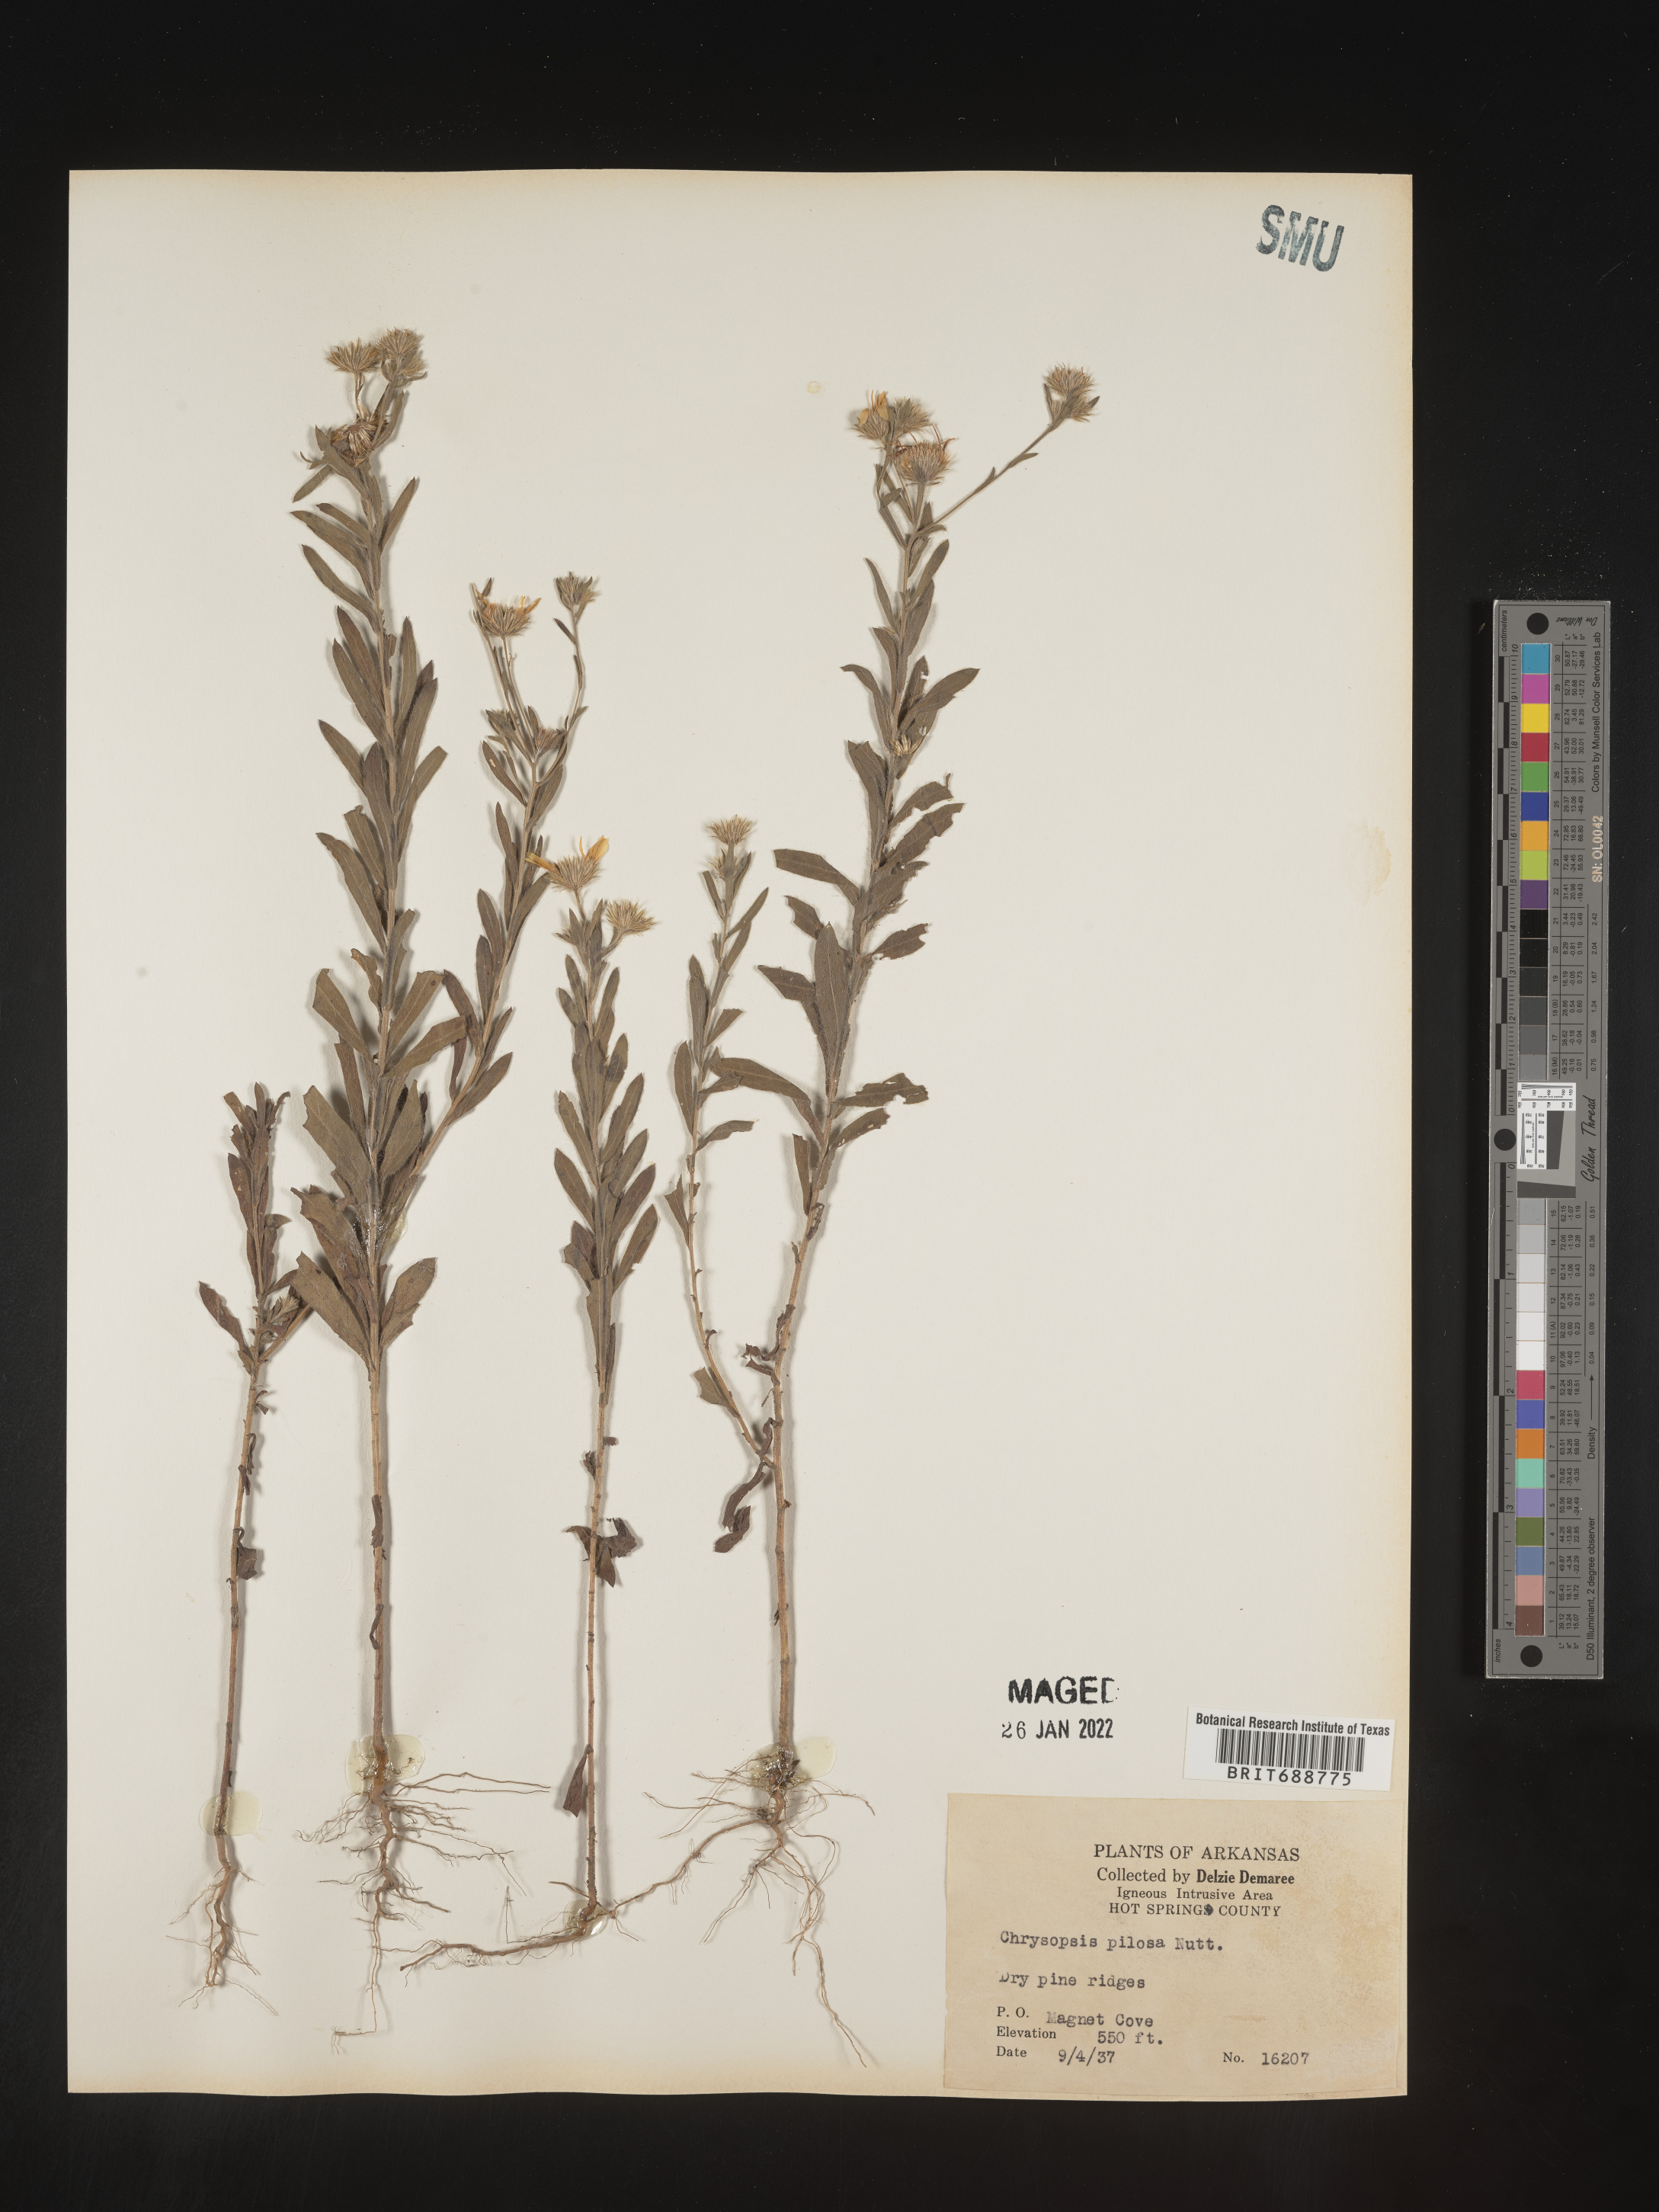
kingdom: Plantae
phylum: Tracheophyta
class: Magnoliopsida
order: Asterales
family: Asteraceae
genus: Bradburia
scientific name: Bradburia pilosa
